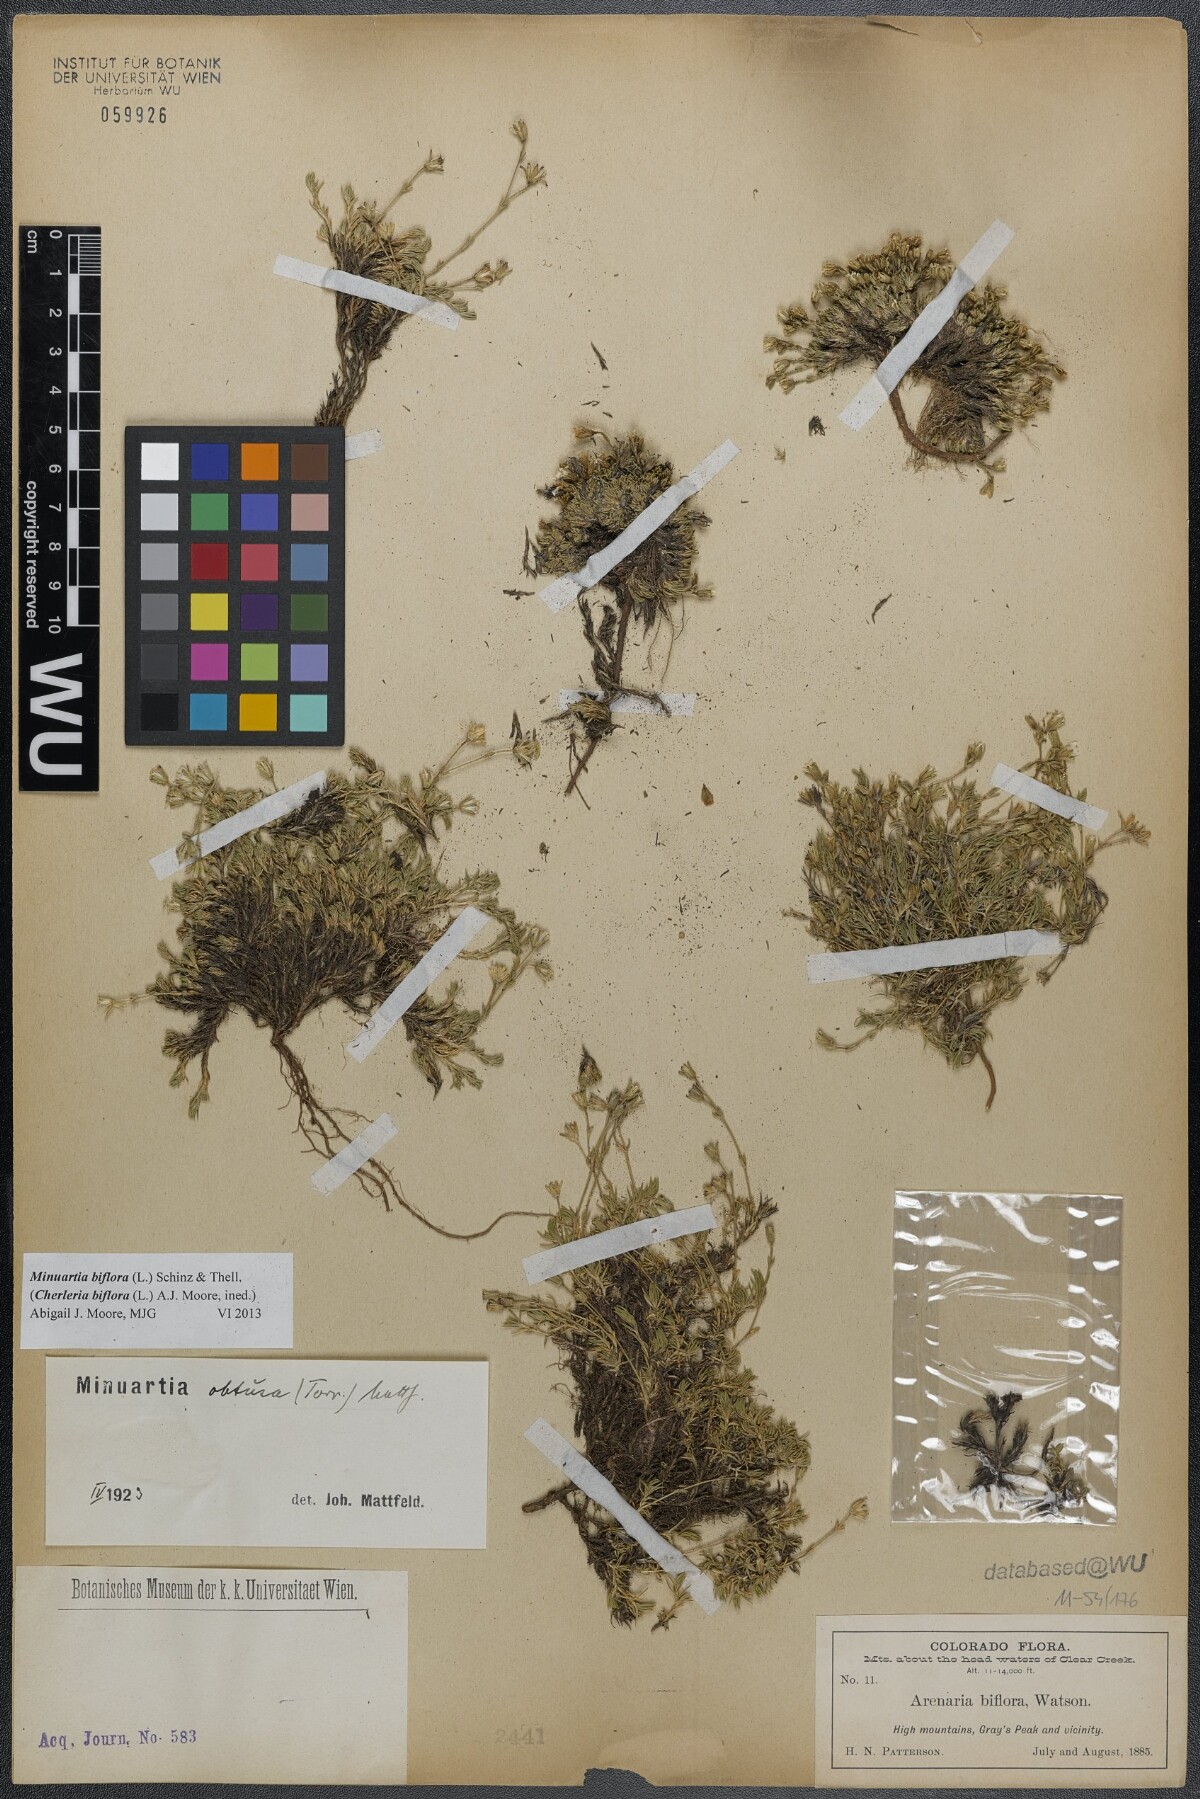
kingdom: Plantae
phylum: Tracheophyta
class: Magnoliopsida
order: Caryophyllales
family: Caryophyllaceae
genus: Cherleria
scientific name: Cherleria biflora
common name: Mountain sandwort
